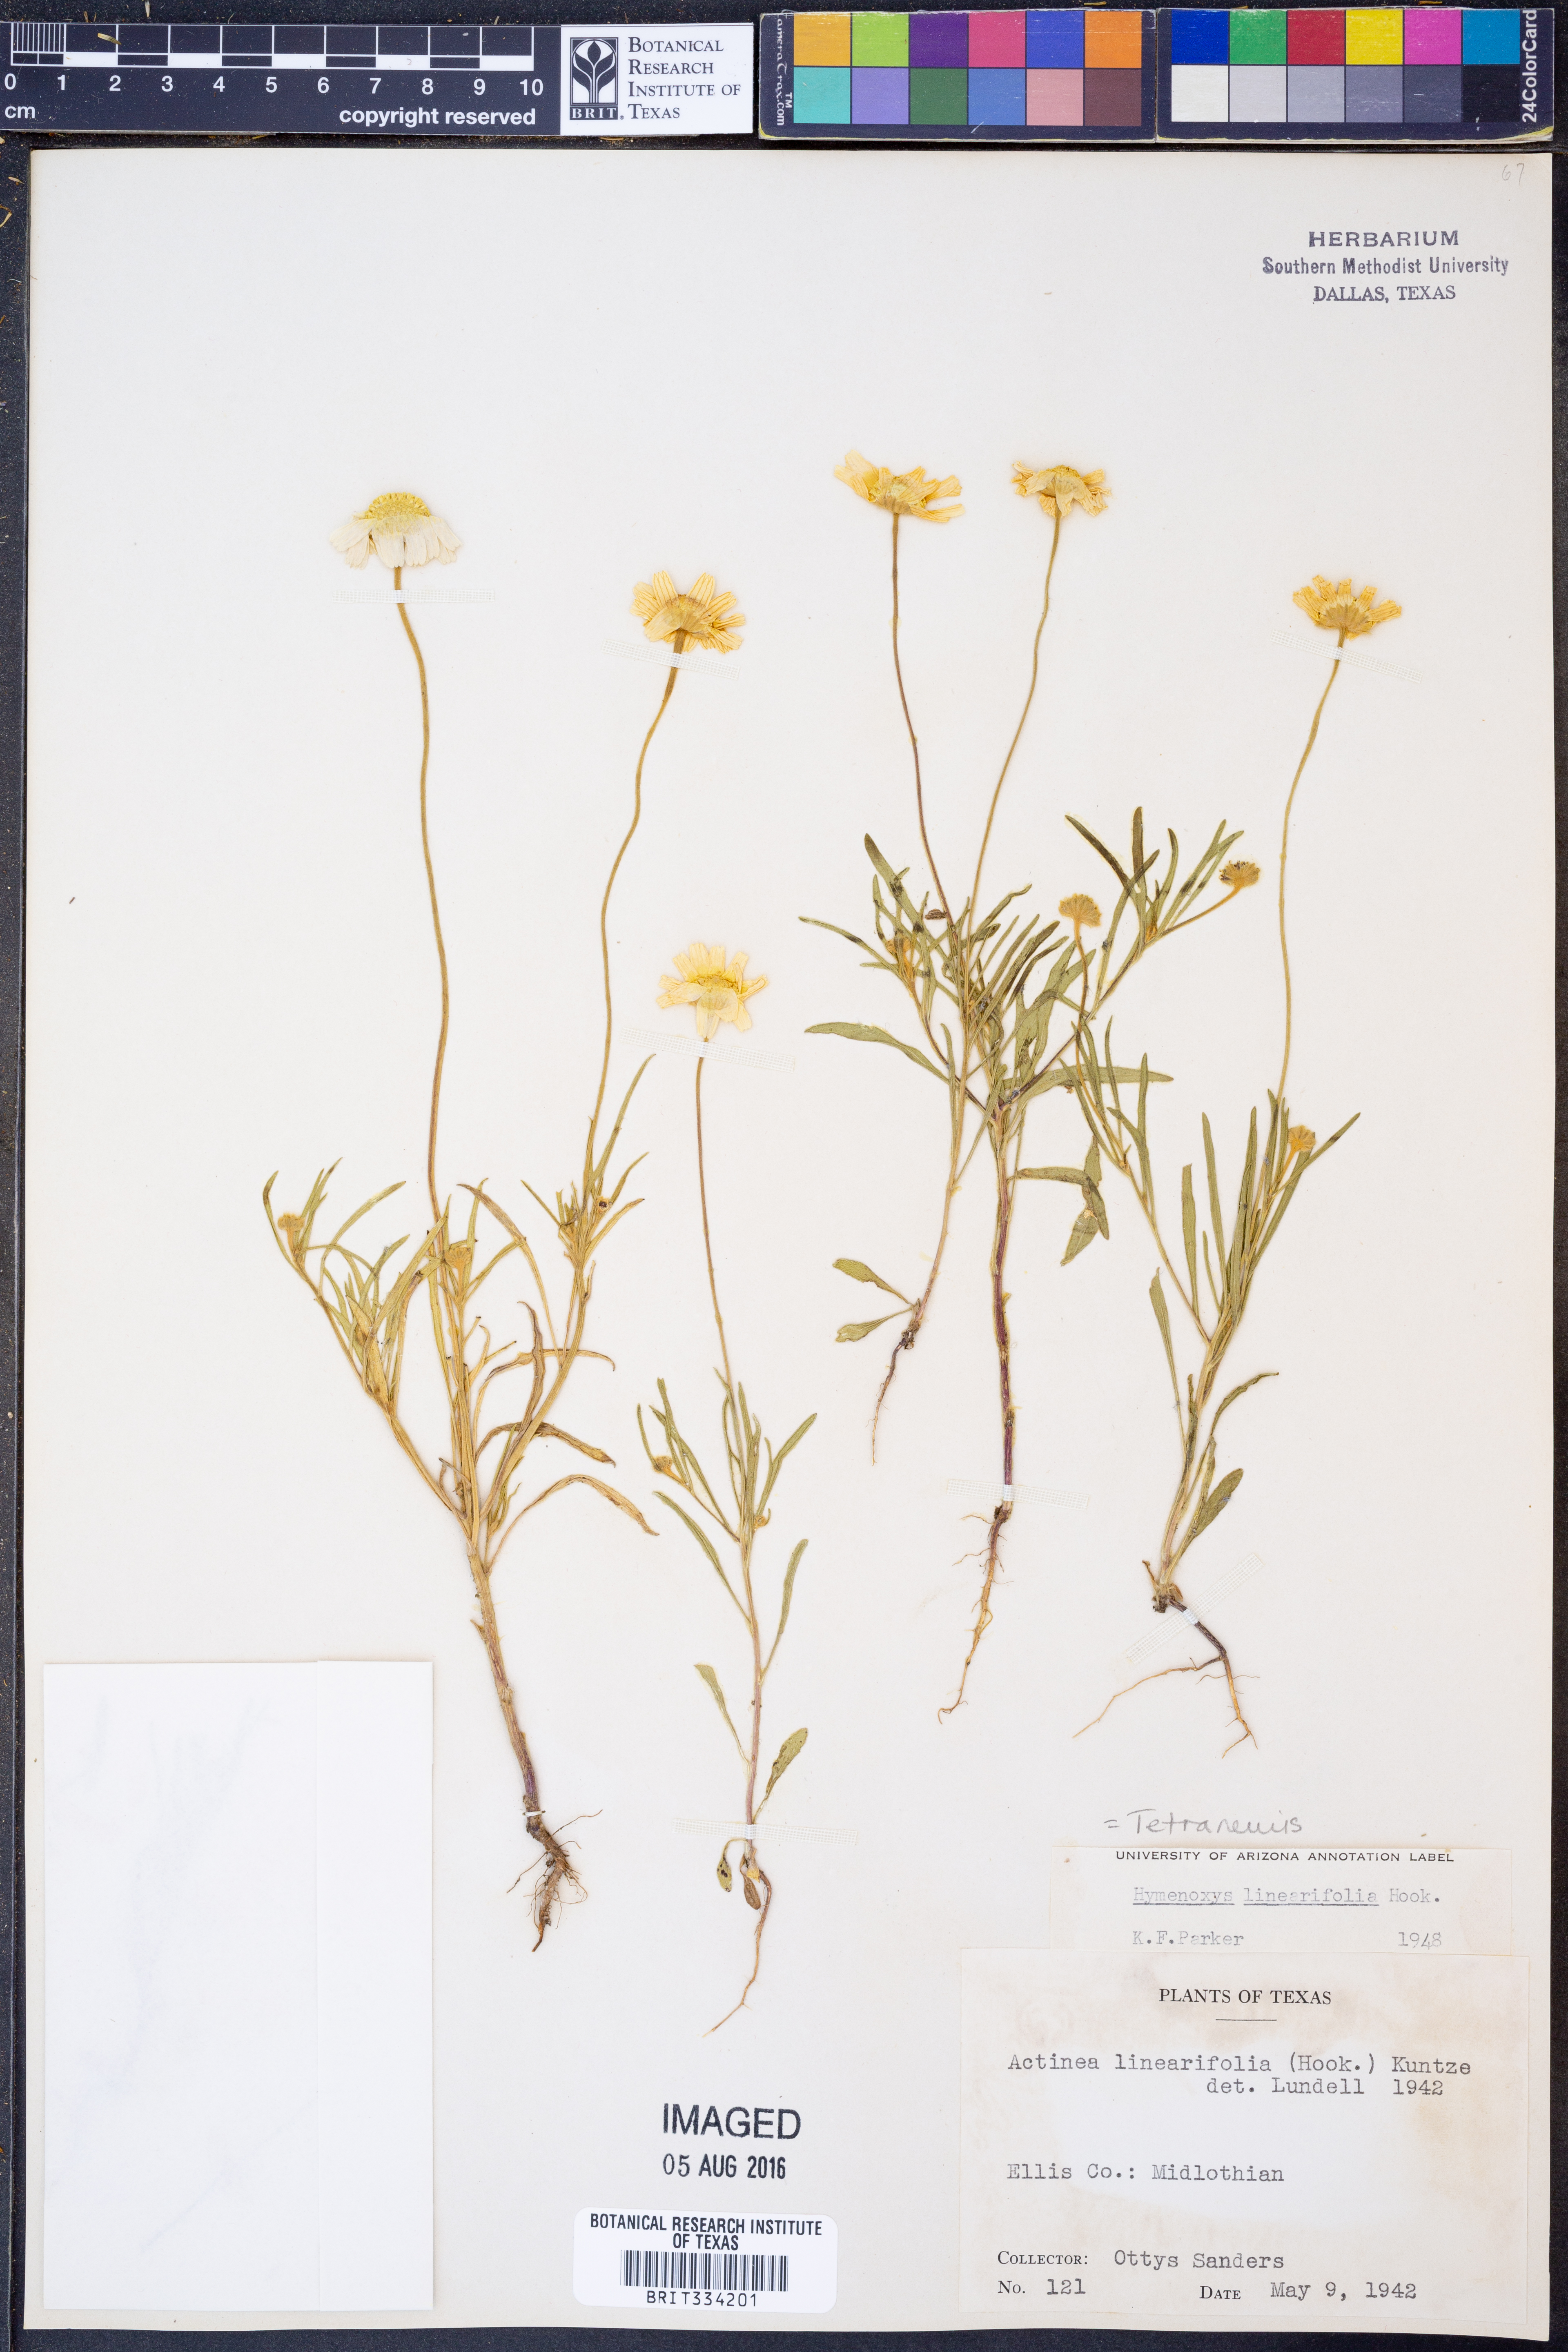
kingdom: Plantae
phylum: Tracheophyta
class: Magnoliopsida
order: Asterales
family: Asteraceae
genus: Tetraneuris
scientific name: Tetraneuris linearifolia
